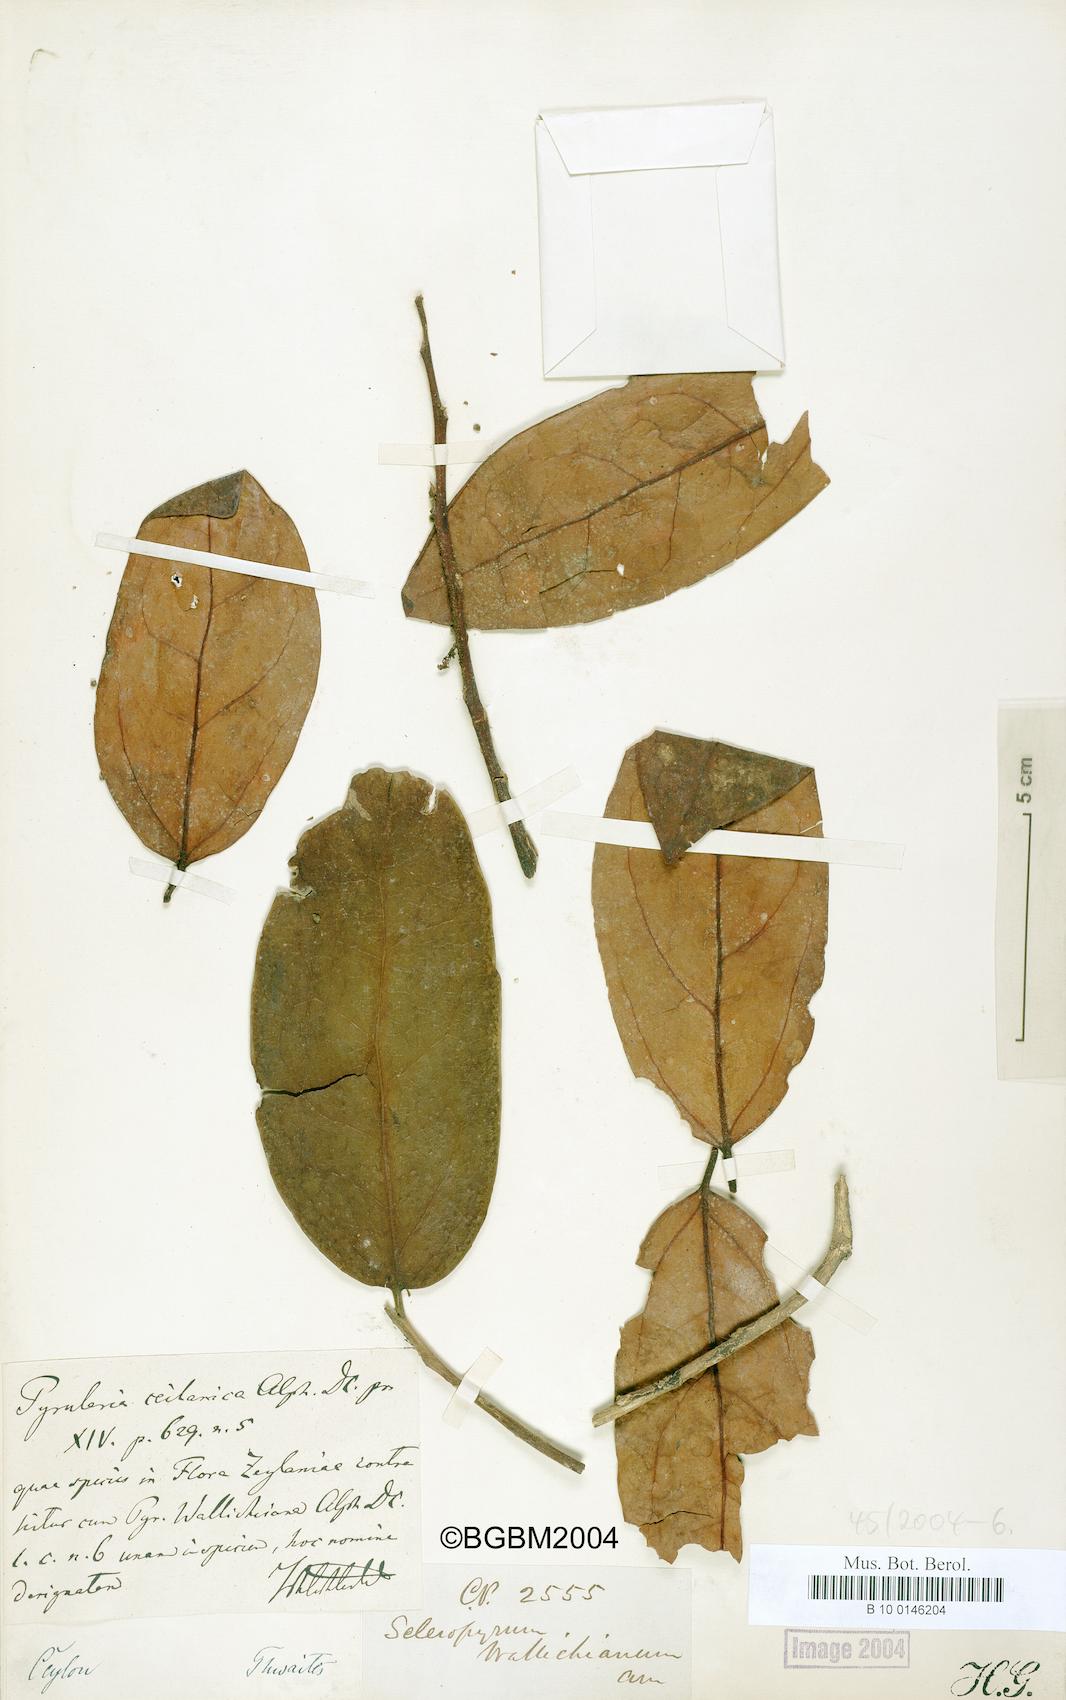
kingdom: Plantae
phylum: Tracheophyta
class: Magnoliopsida
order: Santalales
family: Cervantesiaceae
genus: Scleropyrum
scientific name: Scleropyrum pentandrum
